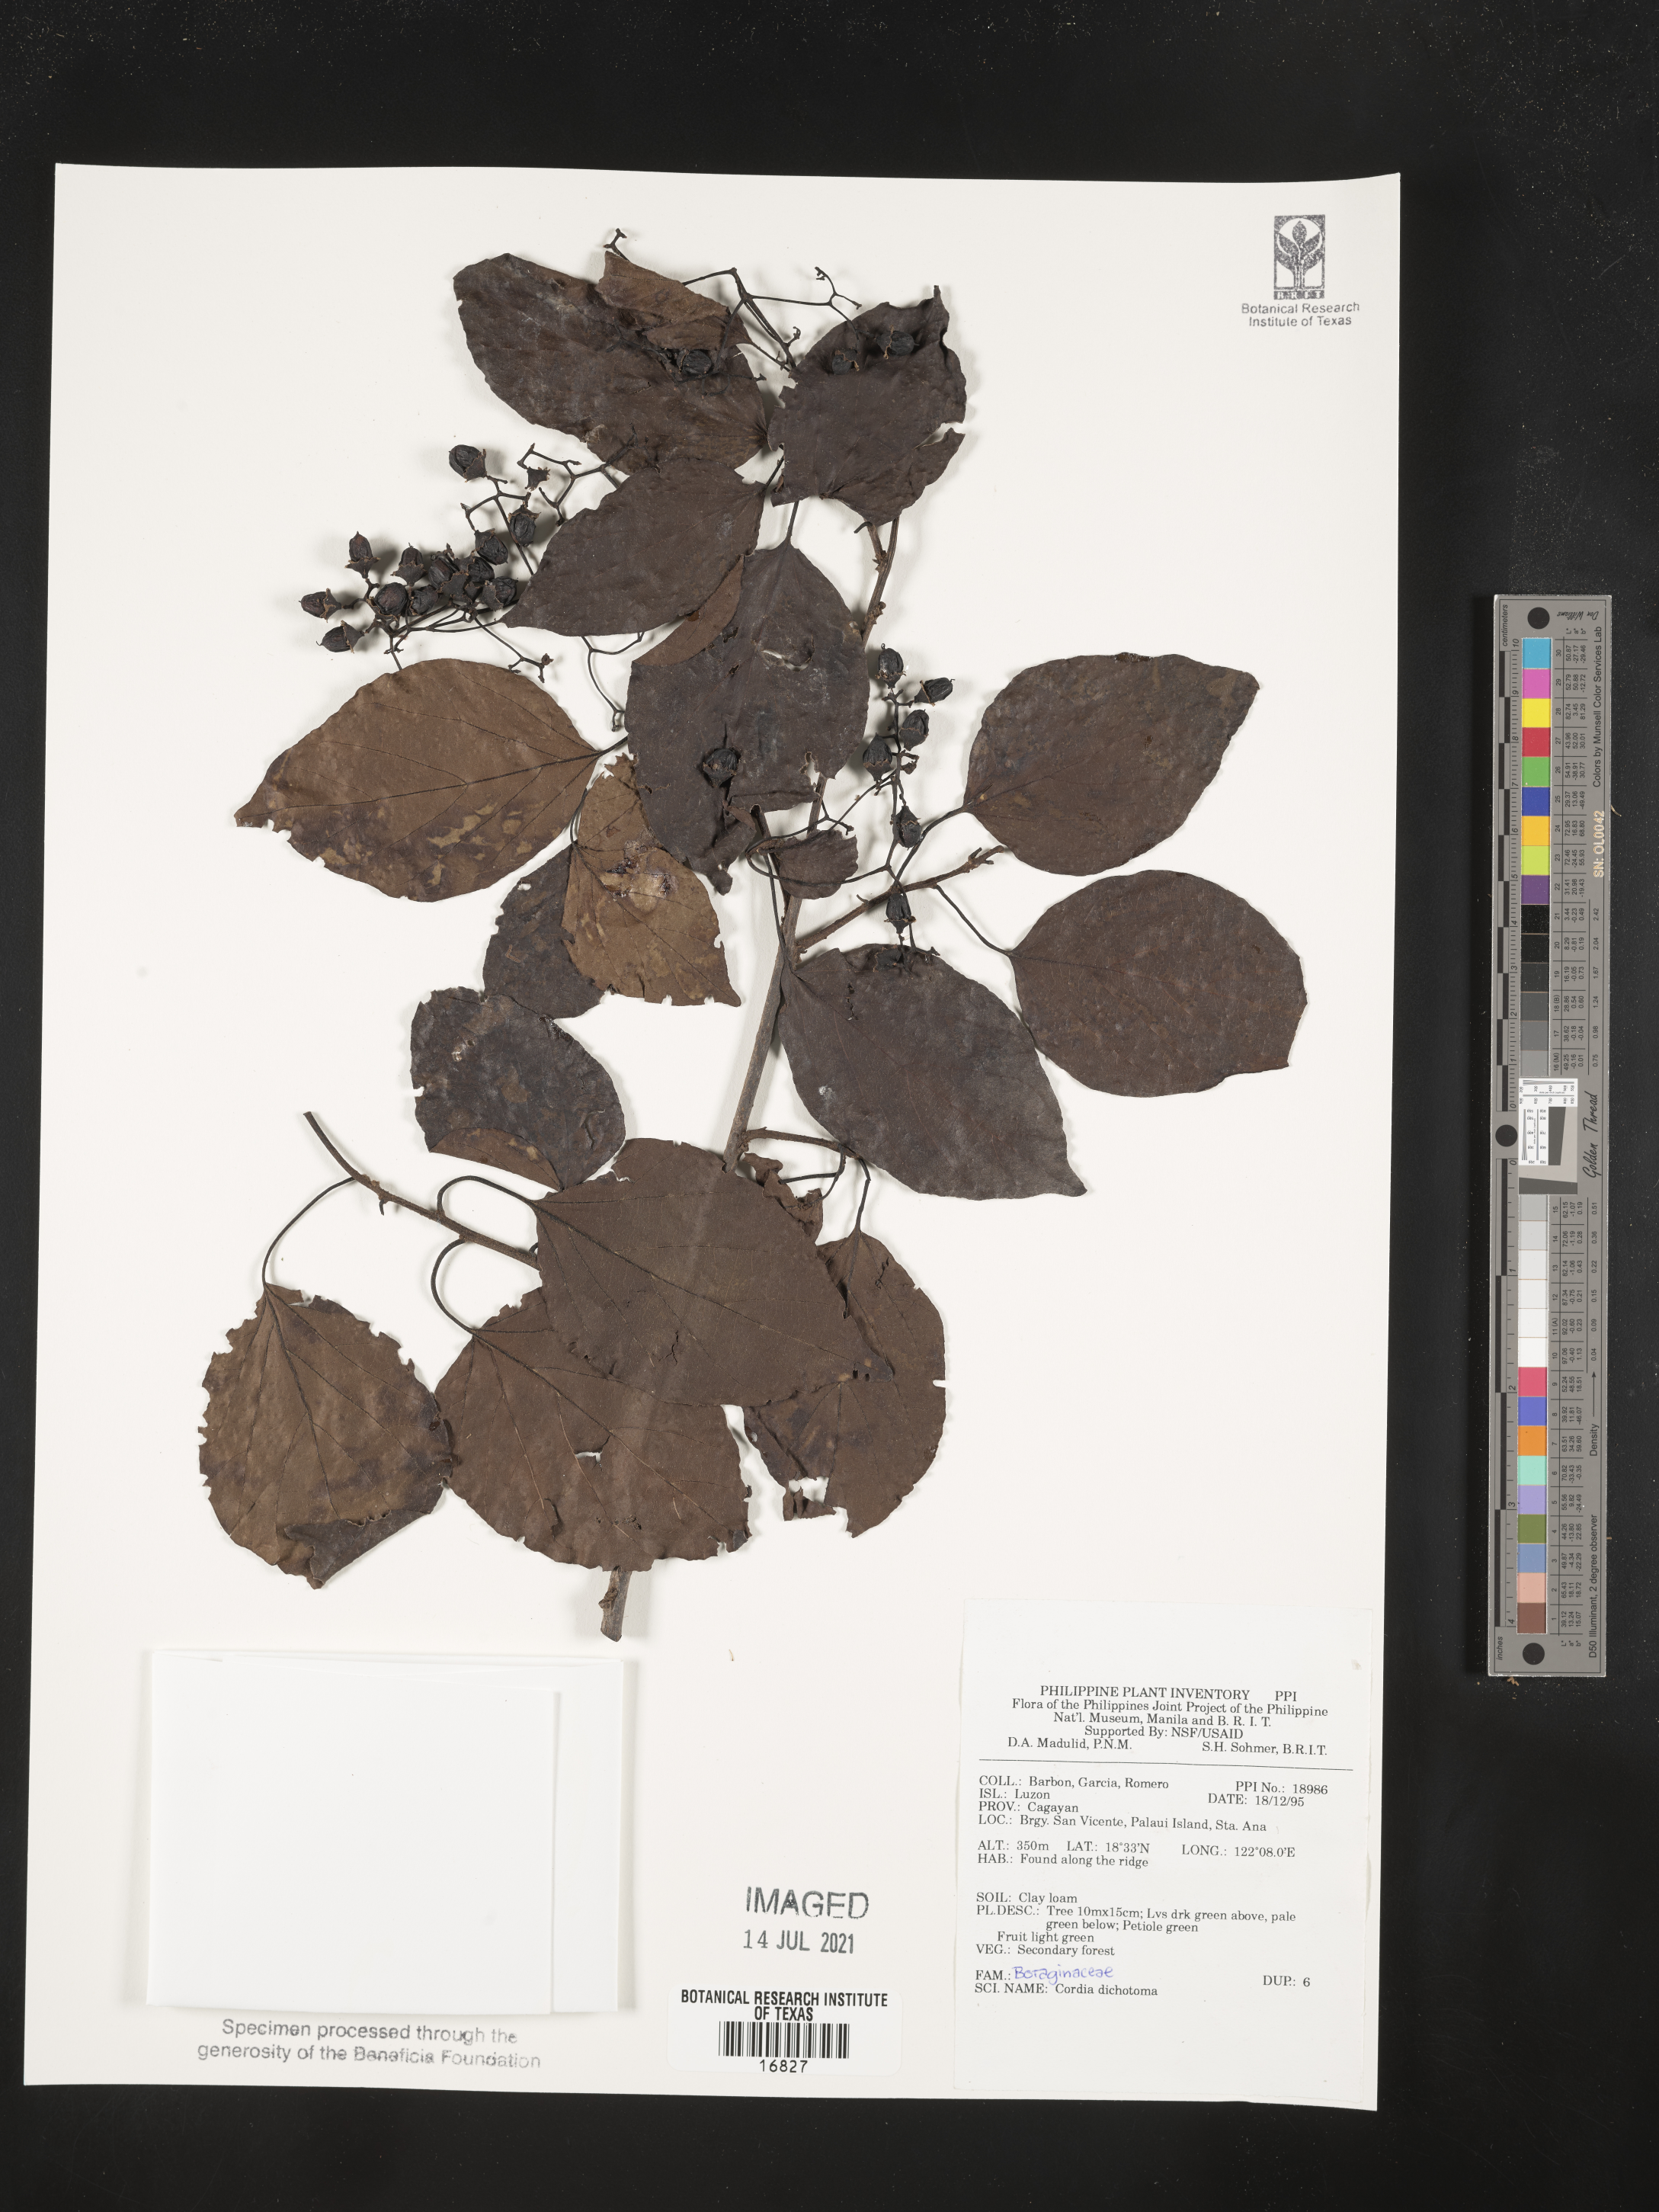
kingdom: Plantae
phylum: Tracheophyta
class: Magnoliopsida
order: Boraginales
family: Cordiaceae
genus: Cordia
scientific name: Cordia dichotoma
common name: Fragrant manjack
